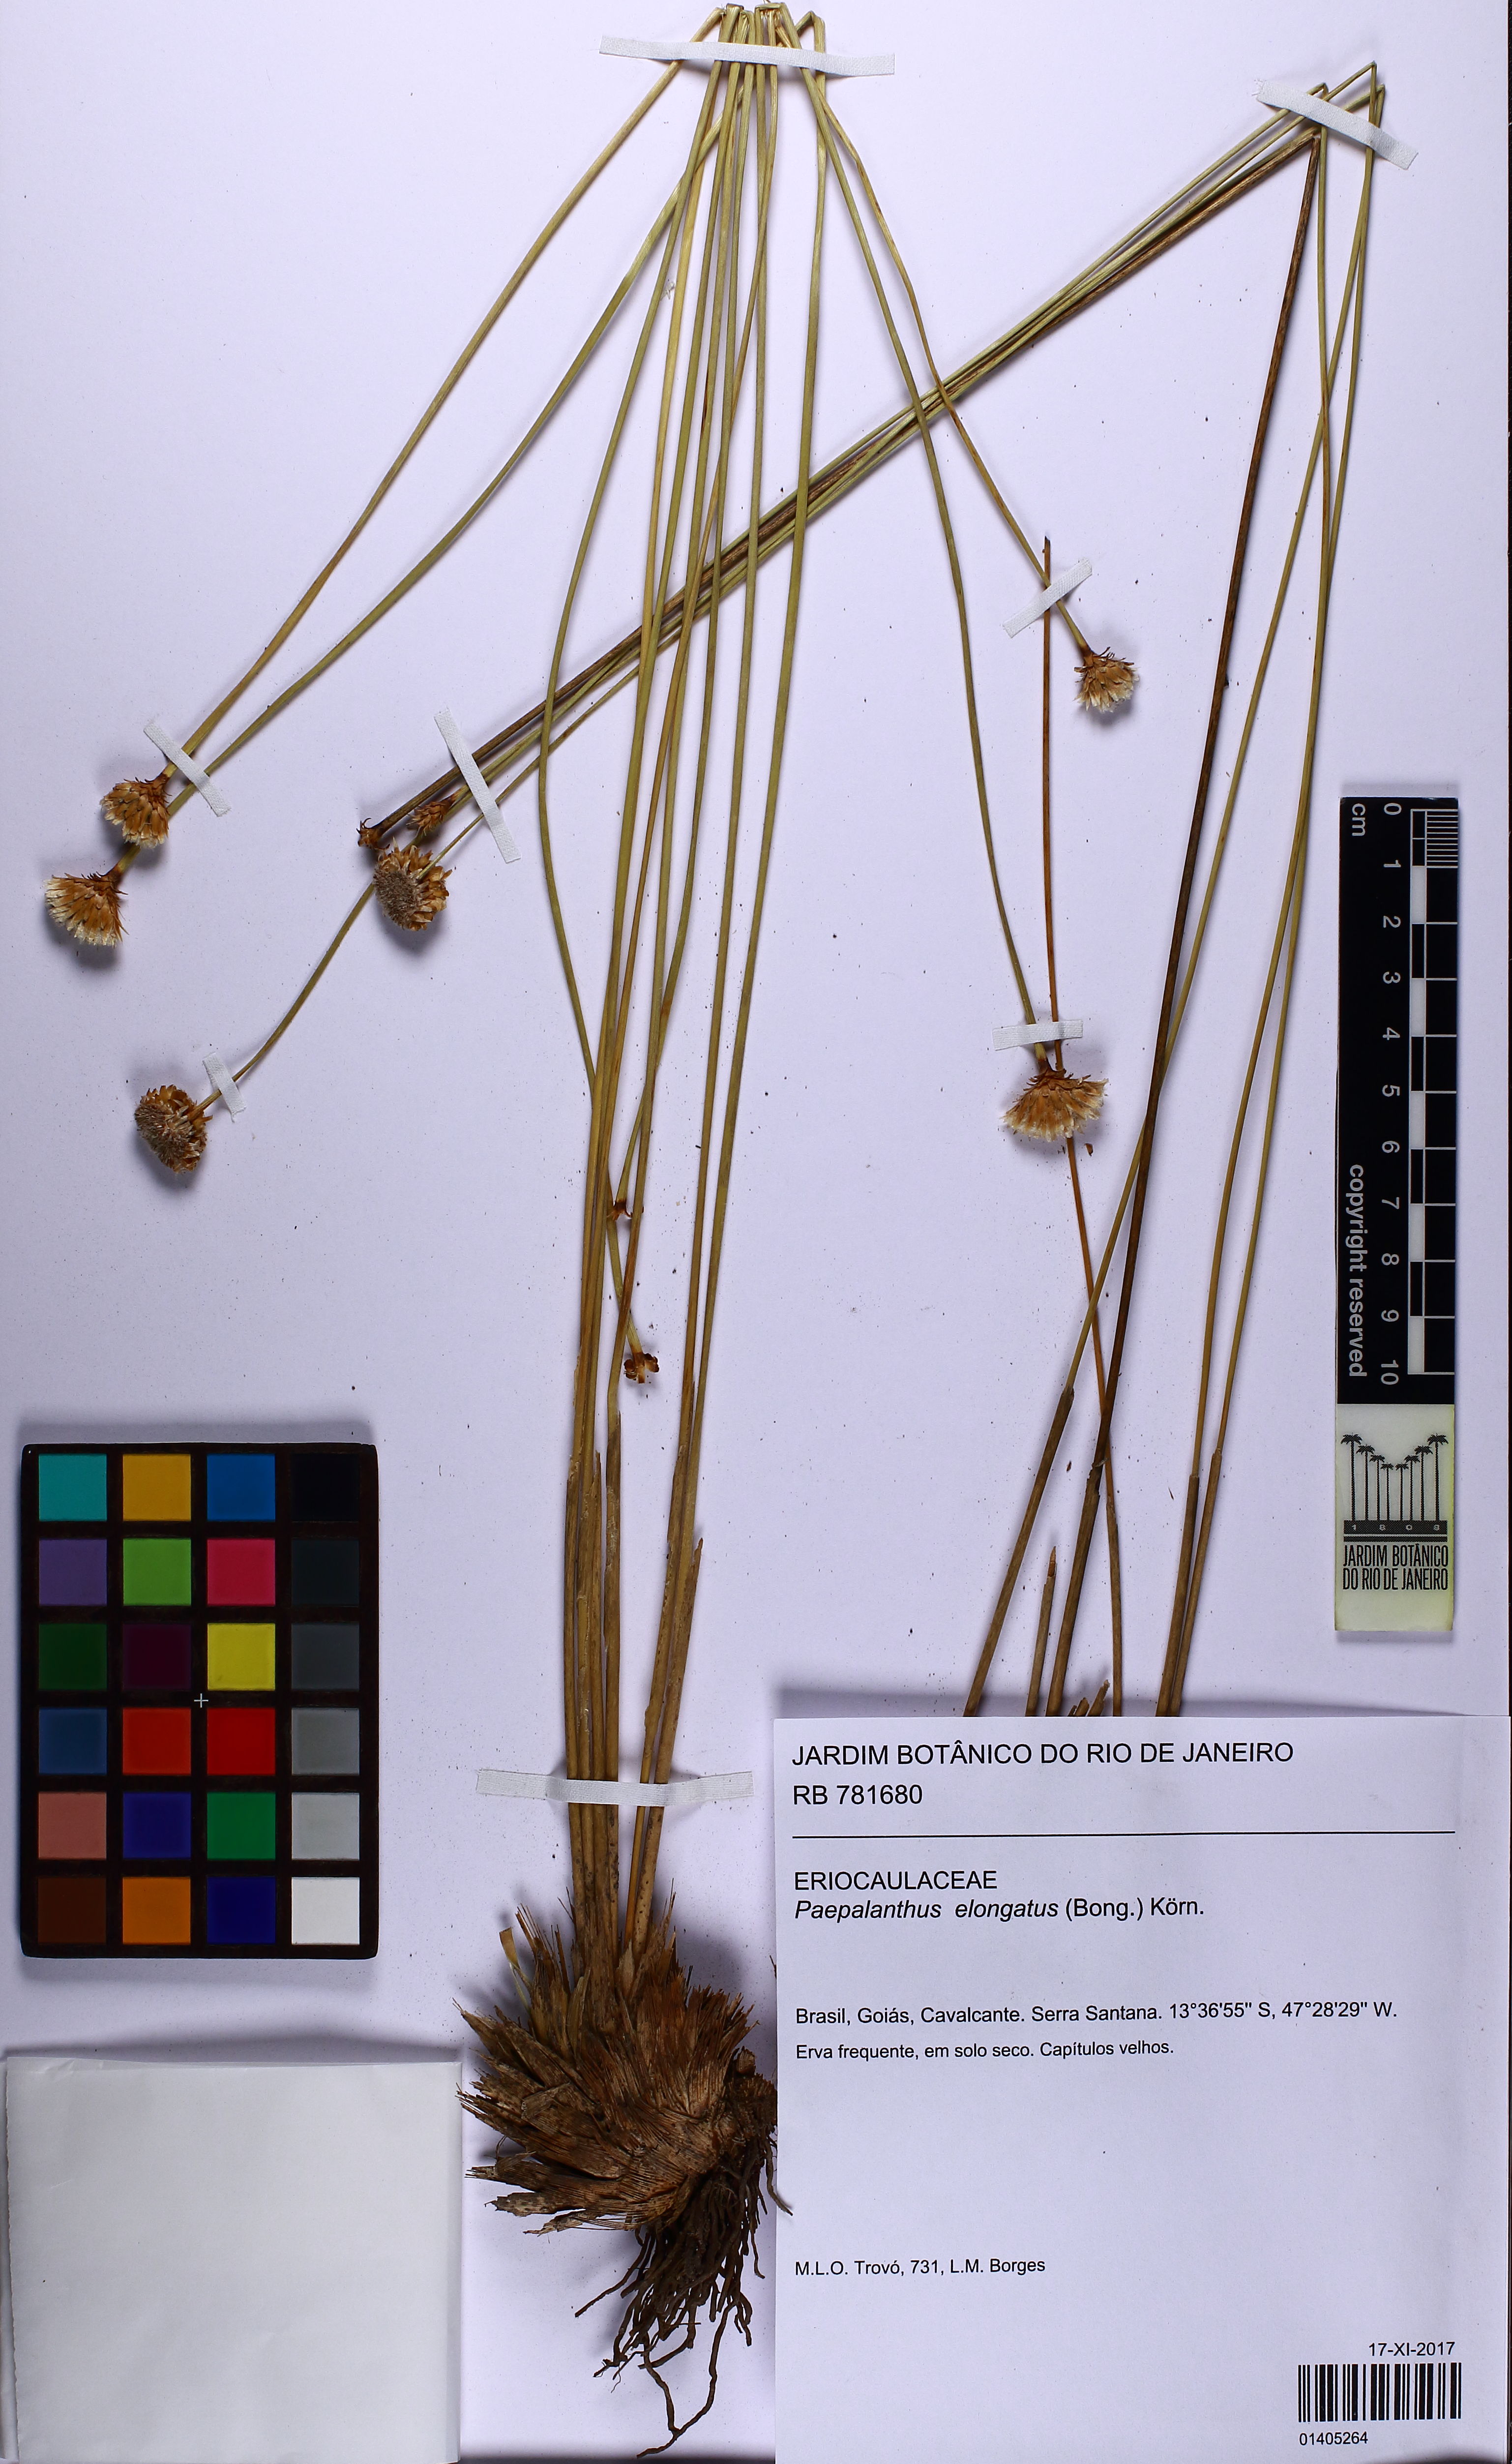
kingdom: Plantae
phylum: Tracheophyta
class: Liliopsida
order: Poales
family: Eriocaulaceae
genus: Paepalanthus
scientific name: Paepalanthus elongatus
